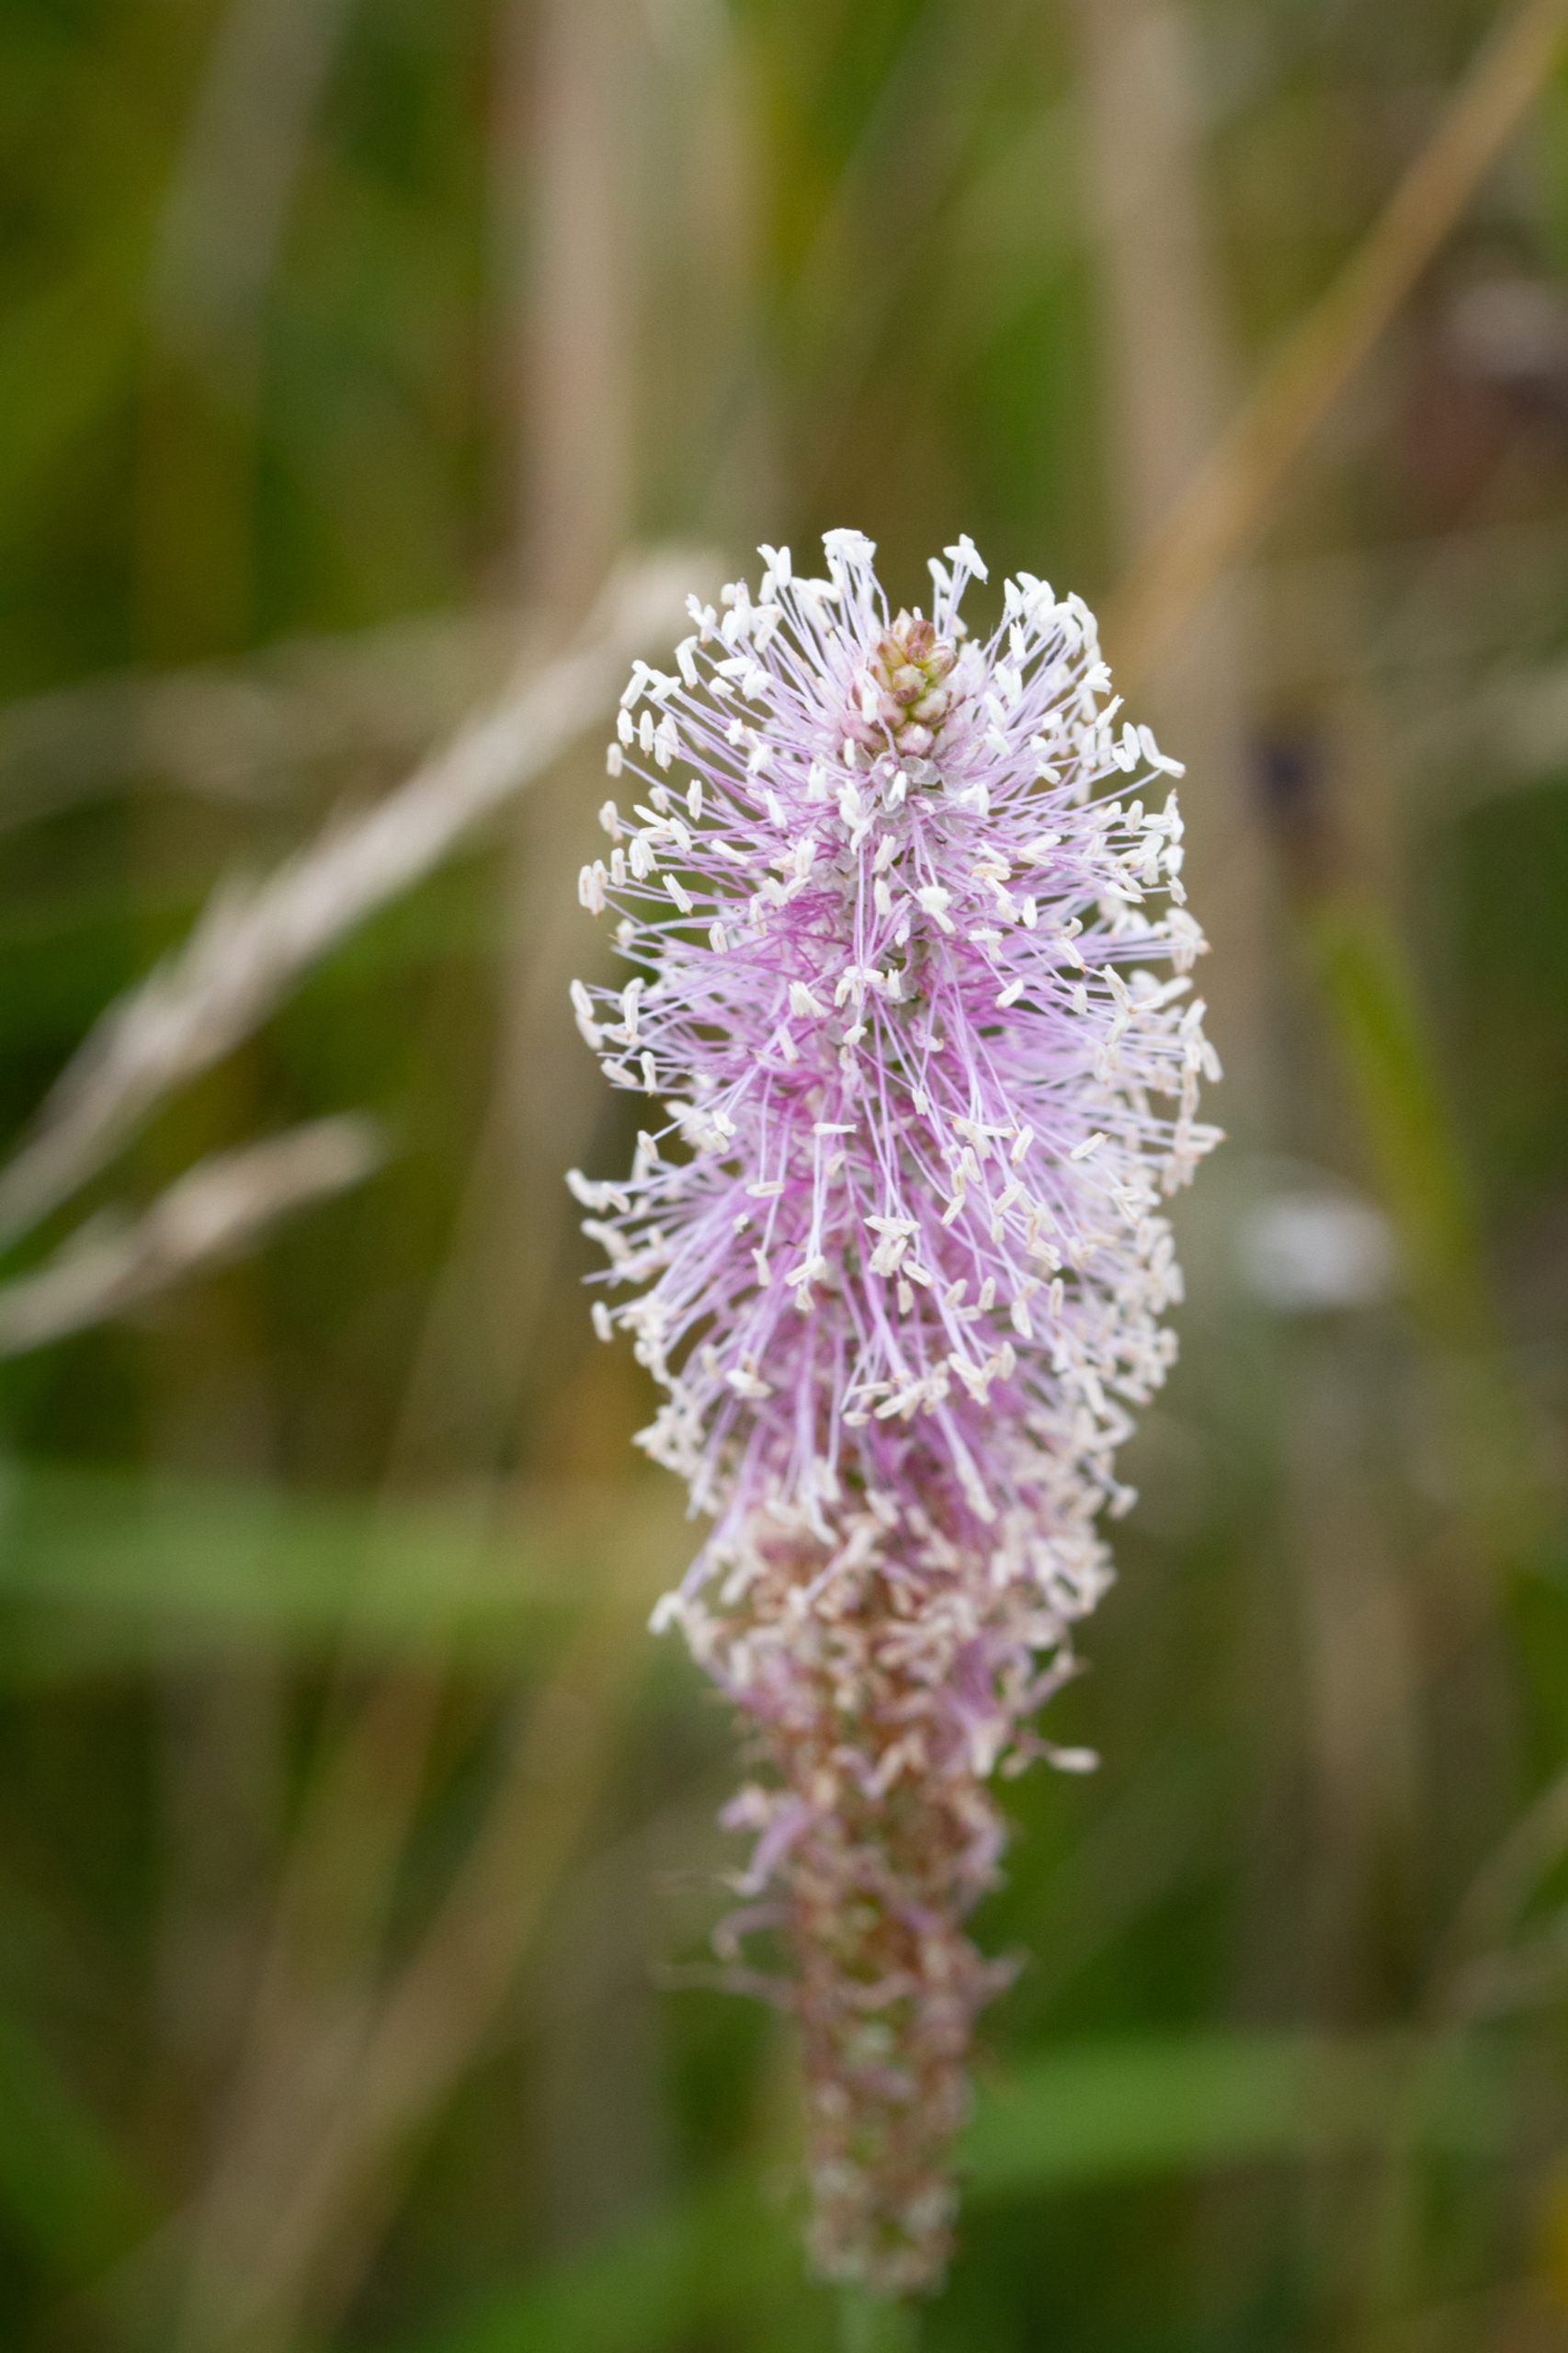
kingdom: Plantae
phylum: Tracheophyta
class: Magnoliopsida
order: Lamiales
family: Plantaginaceae
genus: Plantago
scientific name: Plantago media
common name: Dunet vejbred
